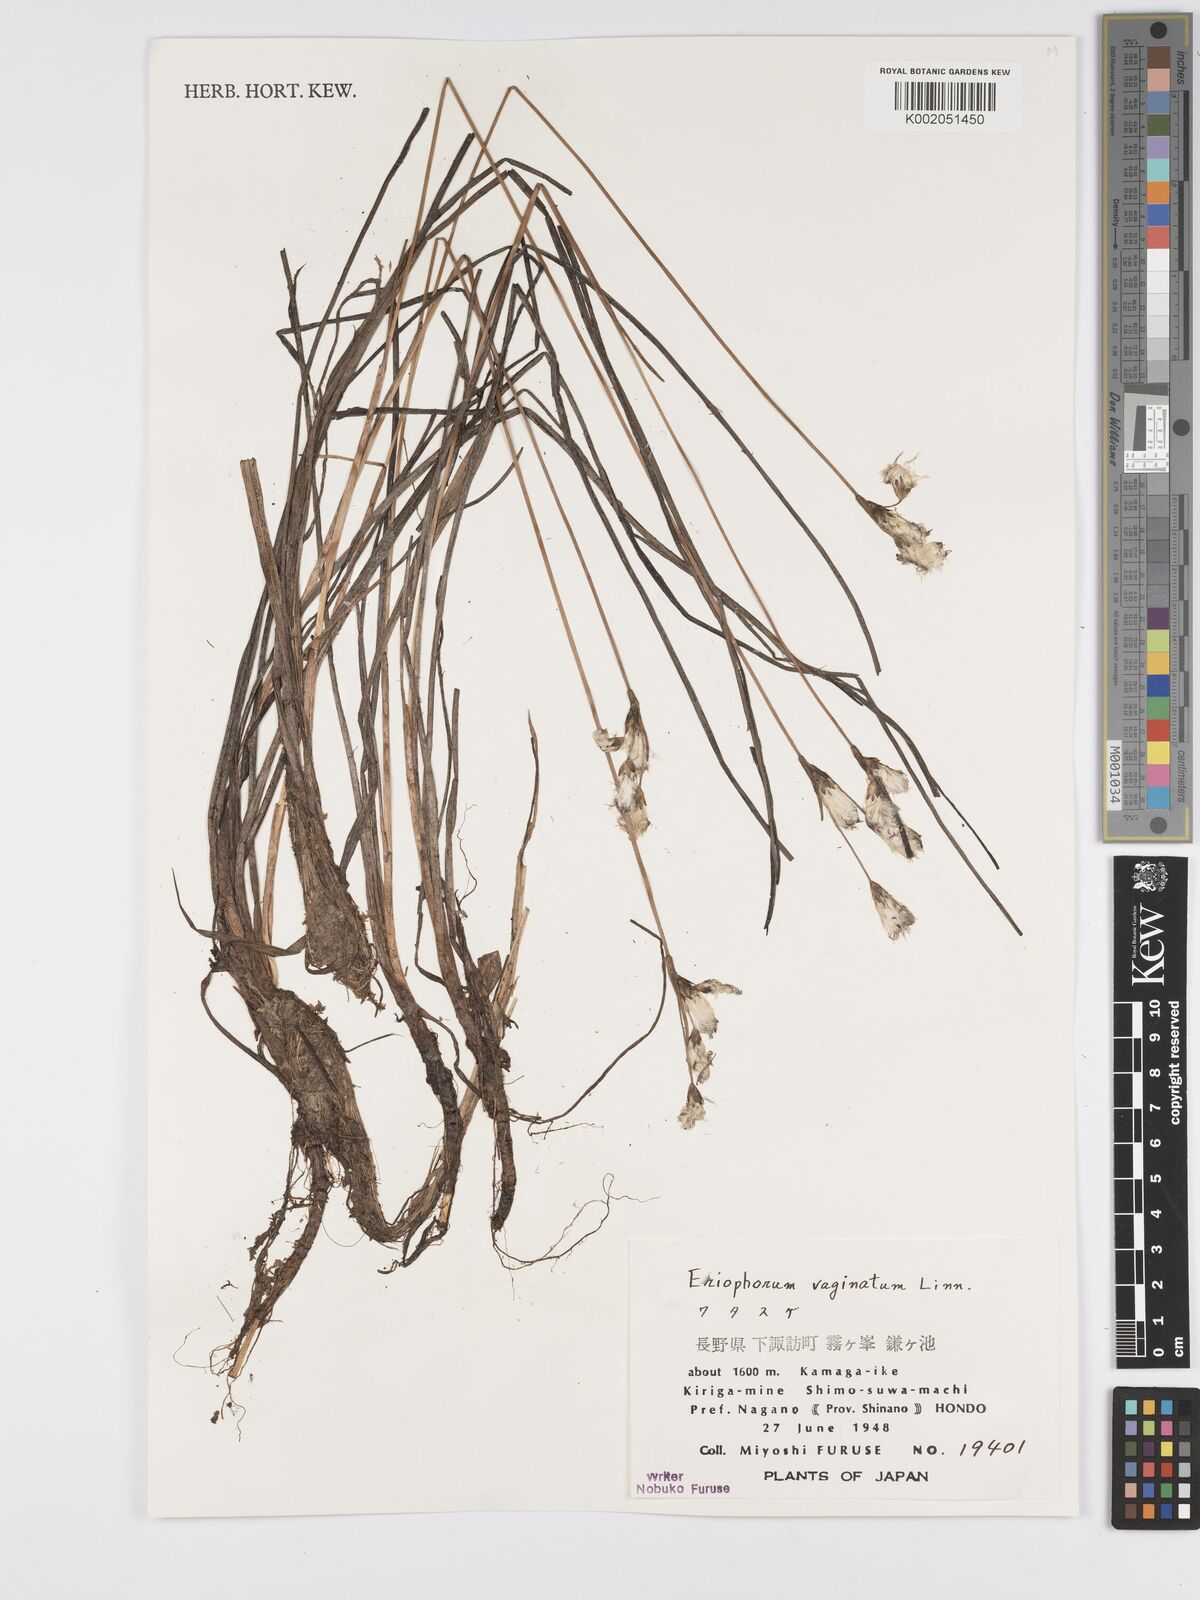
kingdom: Plantae
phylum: Tracheophyta
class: Liliopsida
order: Poales
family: Cyperaceae
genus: Eriophorum
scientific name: Eriophorum vaginatum
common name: Hare's-tail cottongrass
